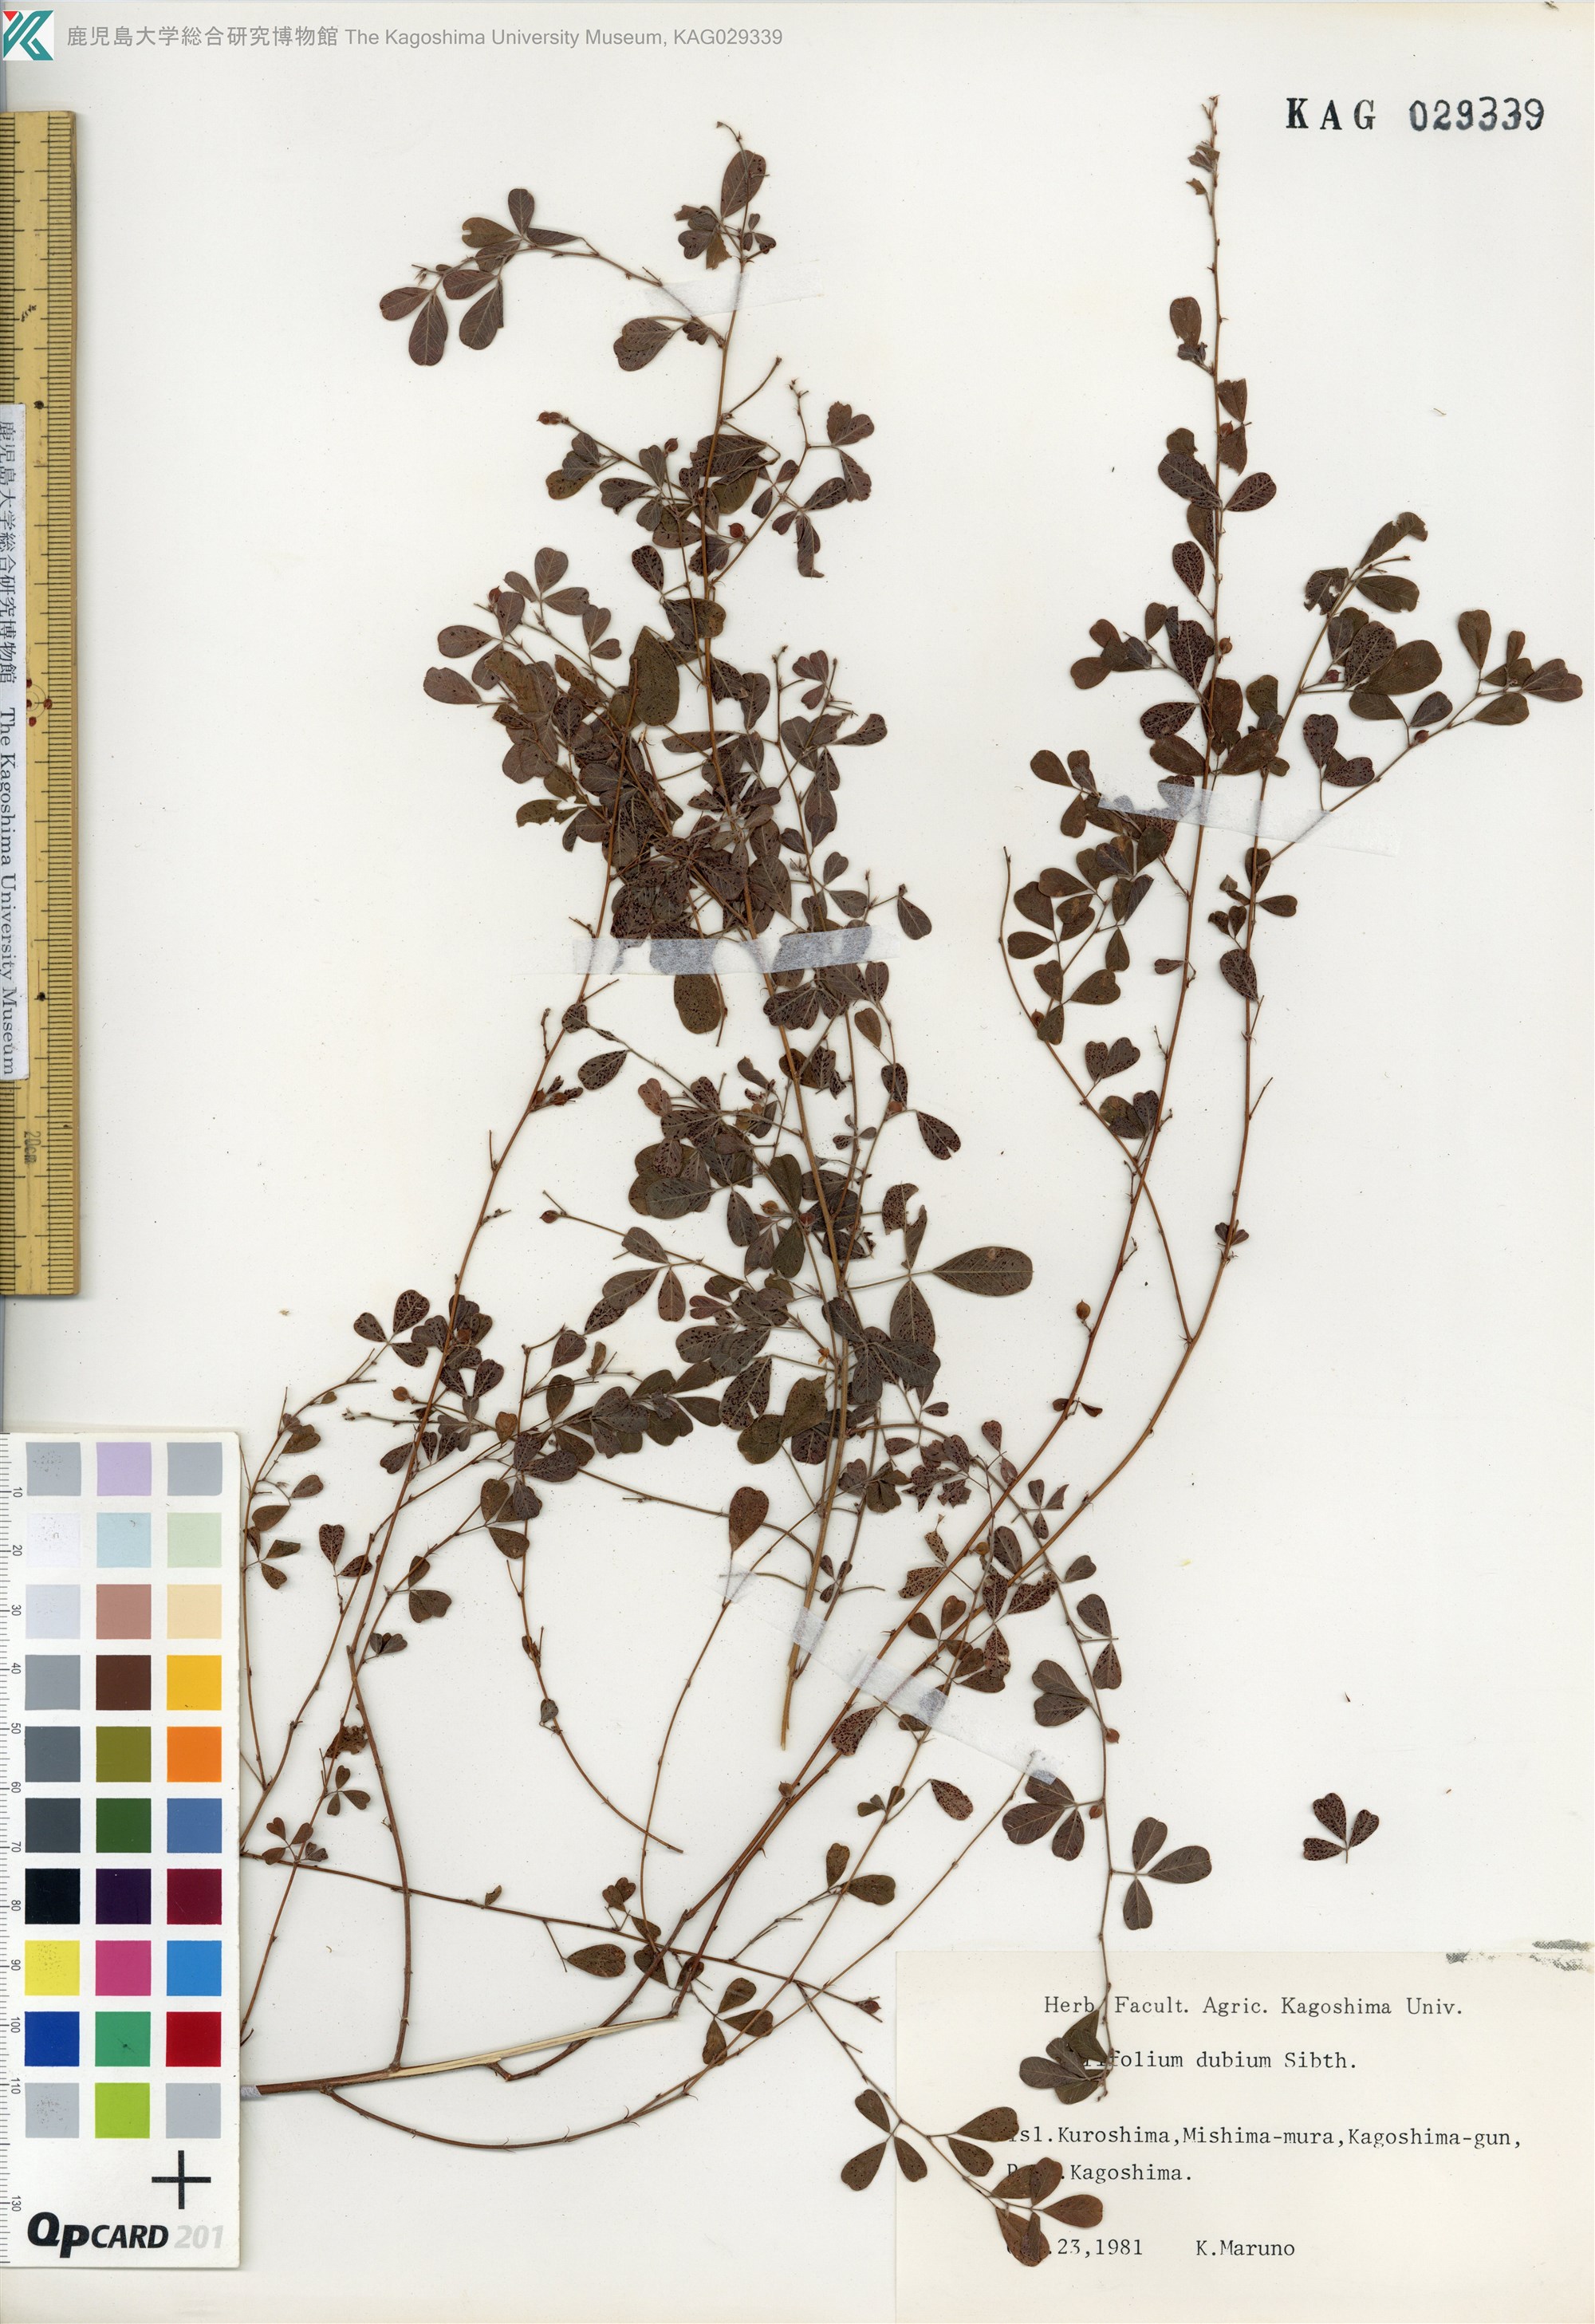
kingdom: Plantae
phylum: Tracheophyta
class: Magnoliopsida
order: Fabales
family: Fabaceae
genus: Trifolium
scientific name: Trifolium dubium
